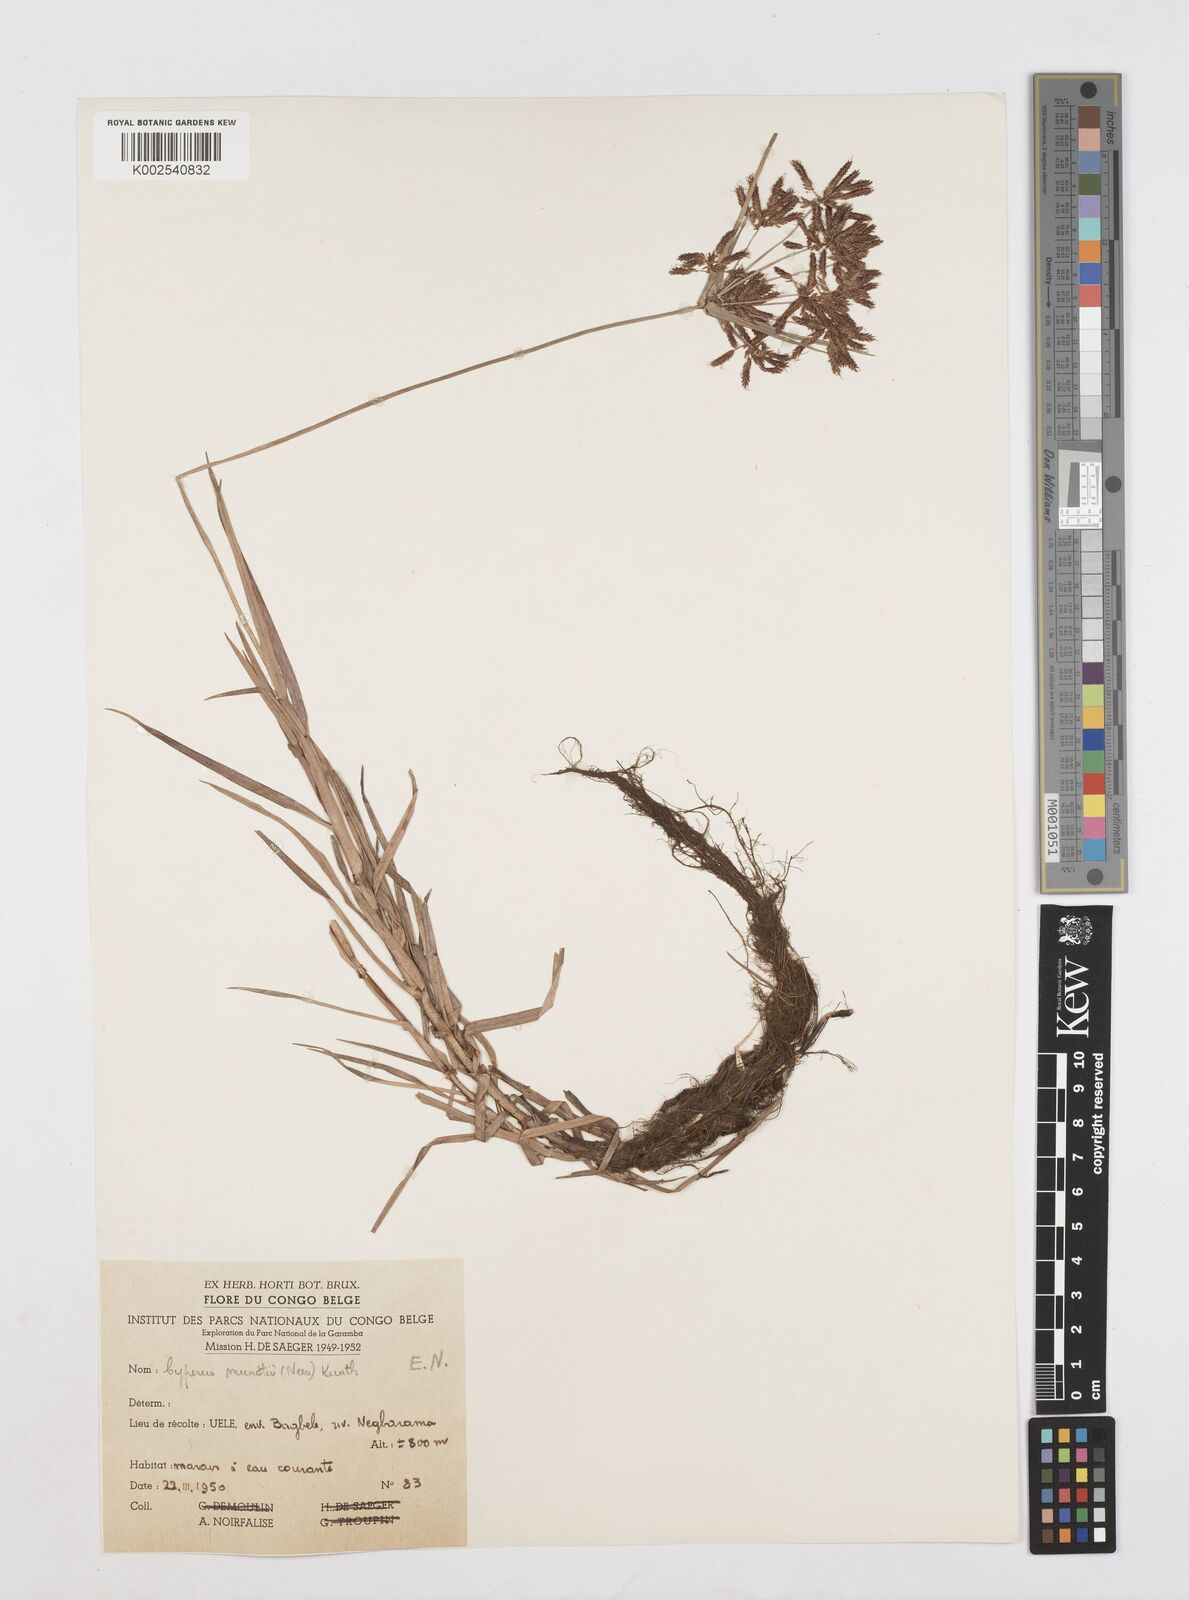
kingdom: Plantae
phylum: Tracheophyta
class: Liliopsida
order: Poales
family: Cyperaceae
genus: Cyperus
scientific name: Cyperus mundii
